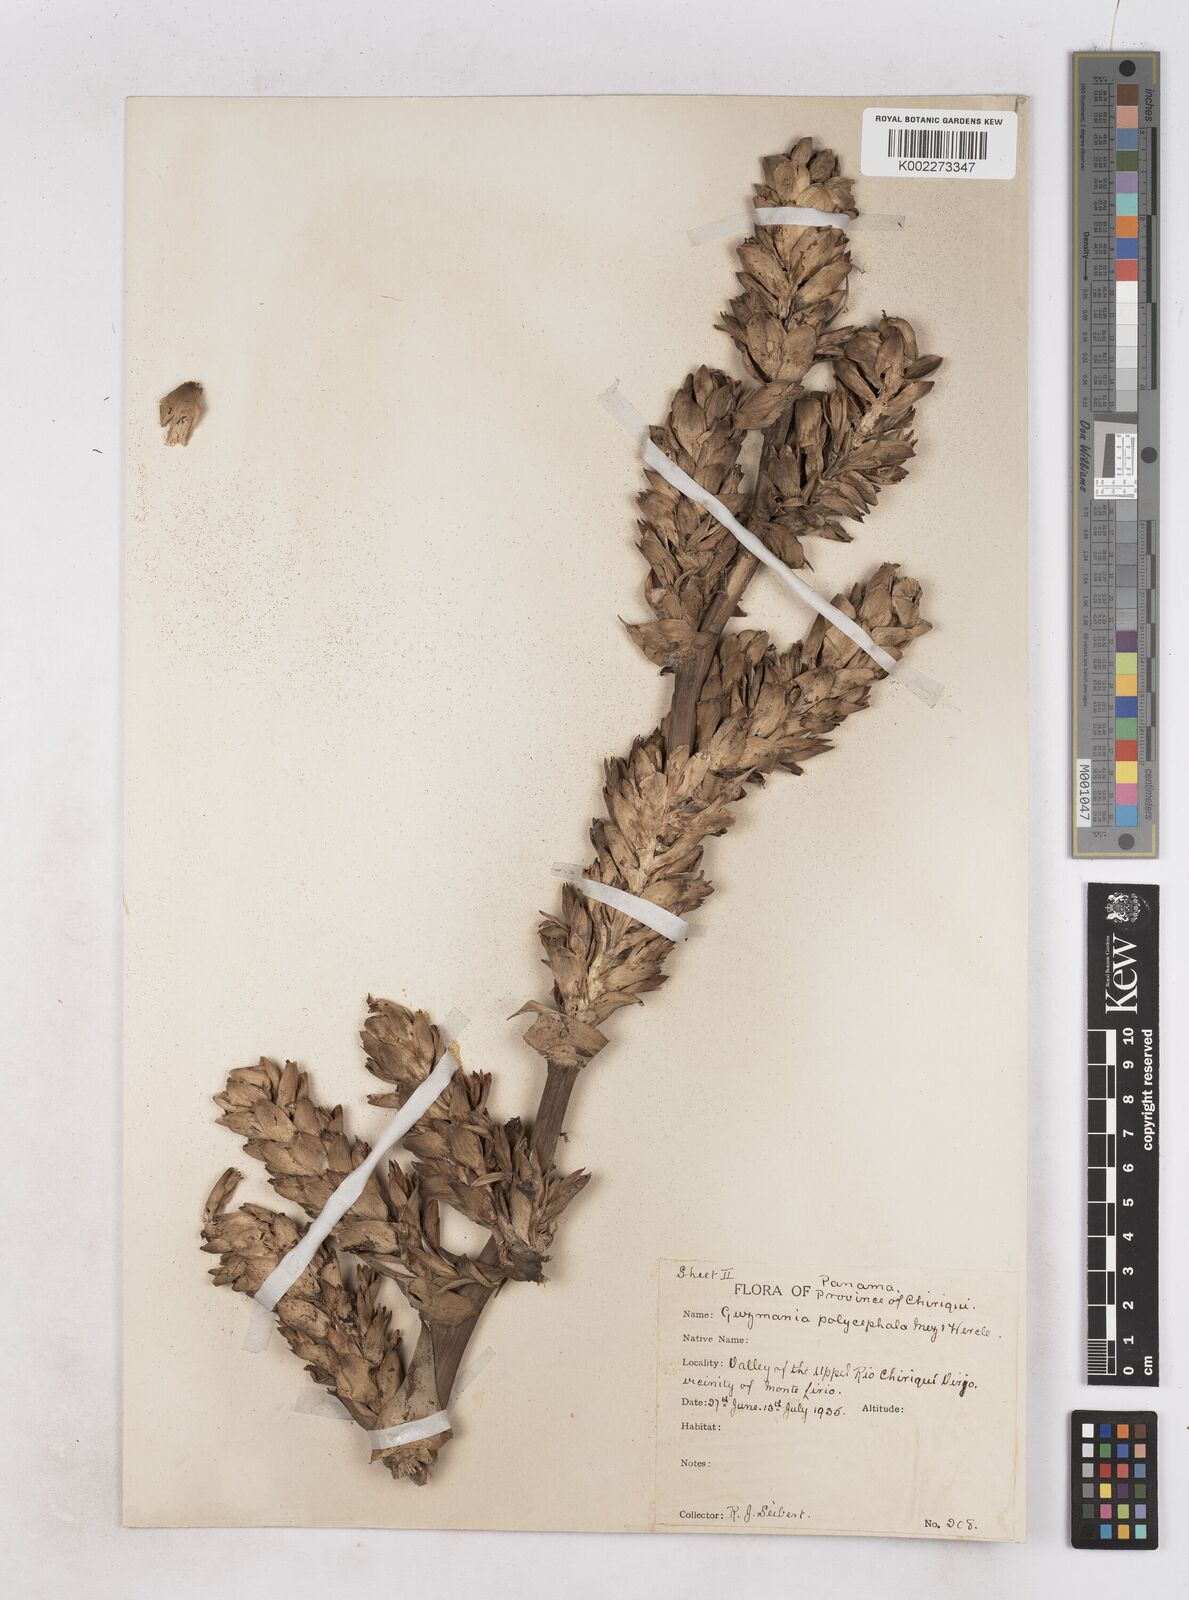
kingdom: Plantae
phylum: Tracheophyta
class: Liliopsida
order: Poales
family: Bromeliaceae
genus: Tillandsia
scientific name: Tillandsia polyantha
